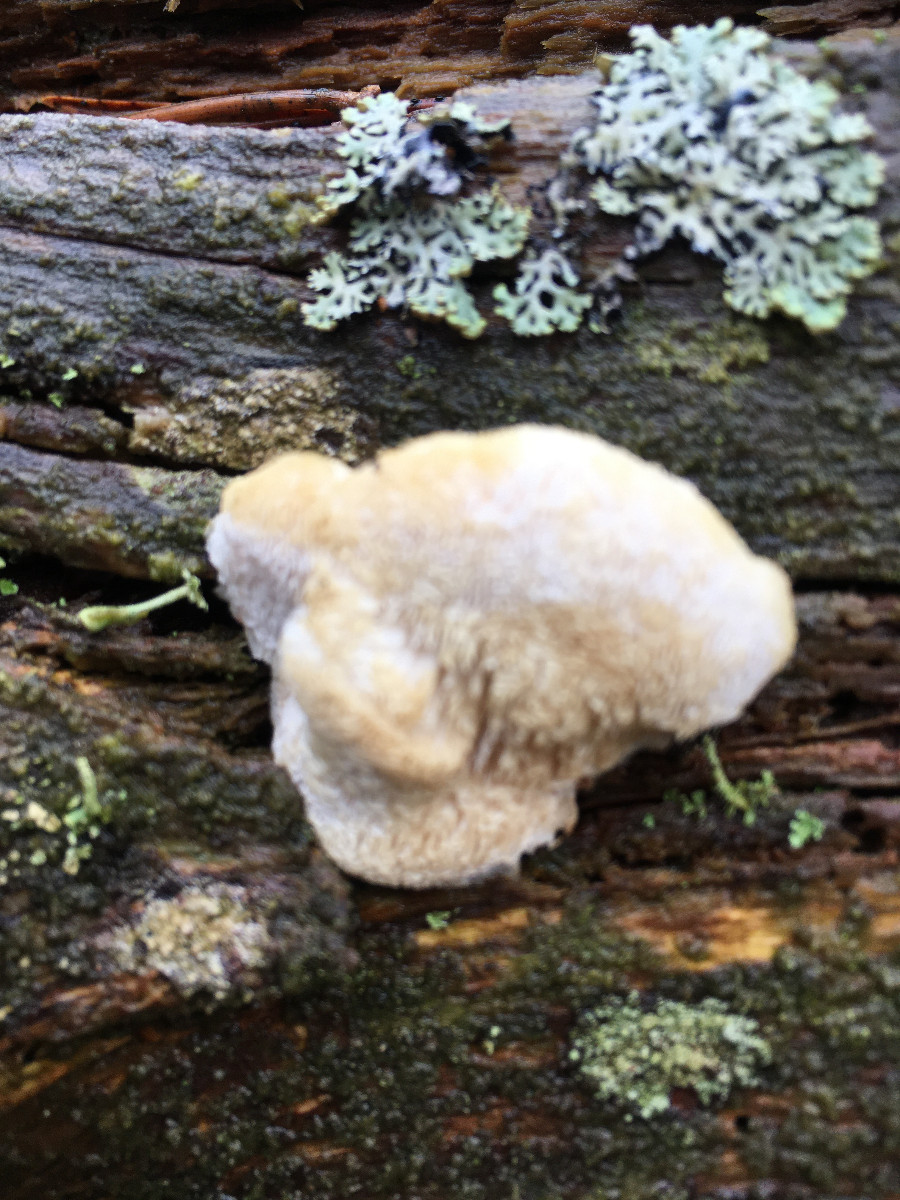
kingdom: Fungi
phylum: Basidiomycota
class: Agaricomycetes
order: Polyporales
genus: Fuscopostia
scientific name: Fuscopostia fragilis
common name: brunende kødporesvamp
